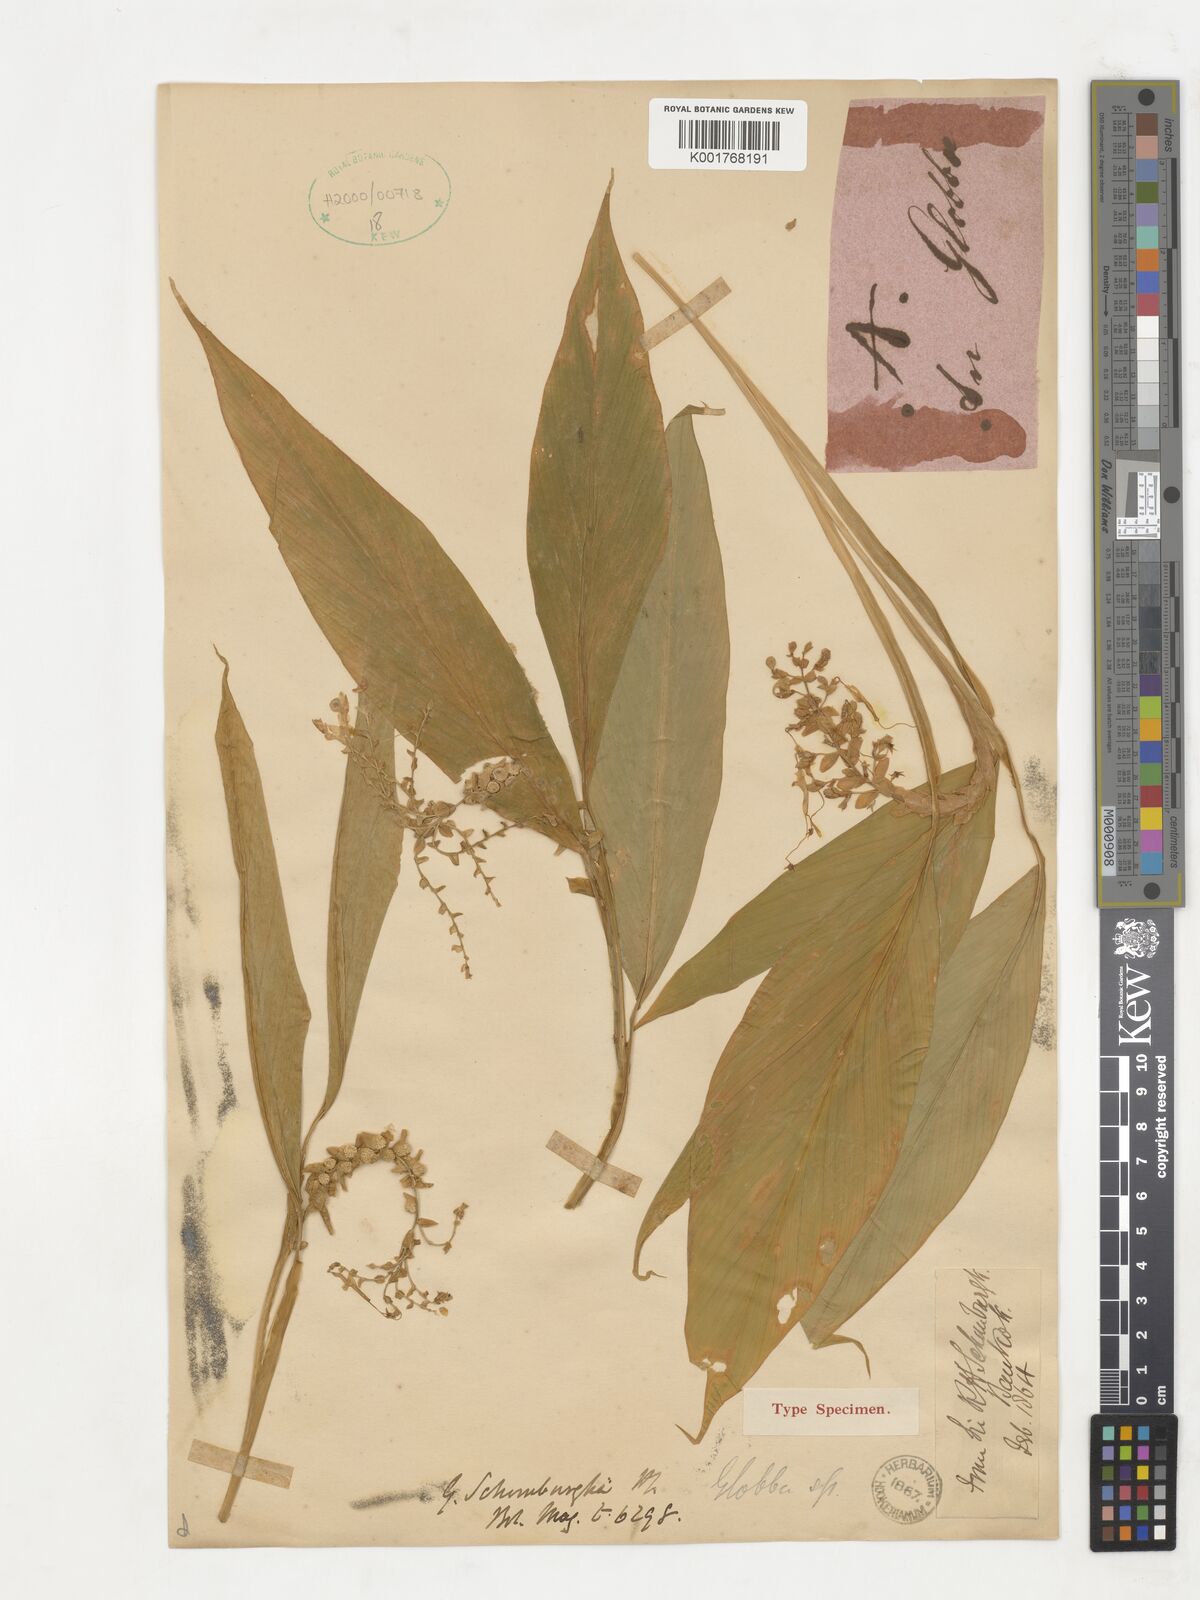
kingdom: Plantae
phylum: Tracheophyta
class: Liliopsida
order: Zingiberales
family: Zingiberaceae
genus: Globba
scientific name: Globba schomburgkii
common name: Dancing girl ginger
